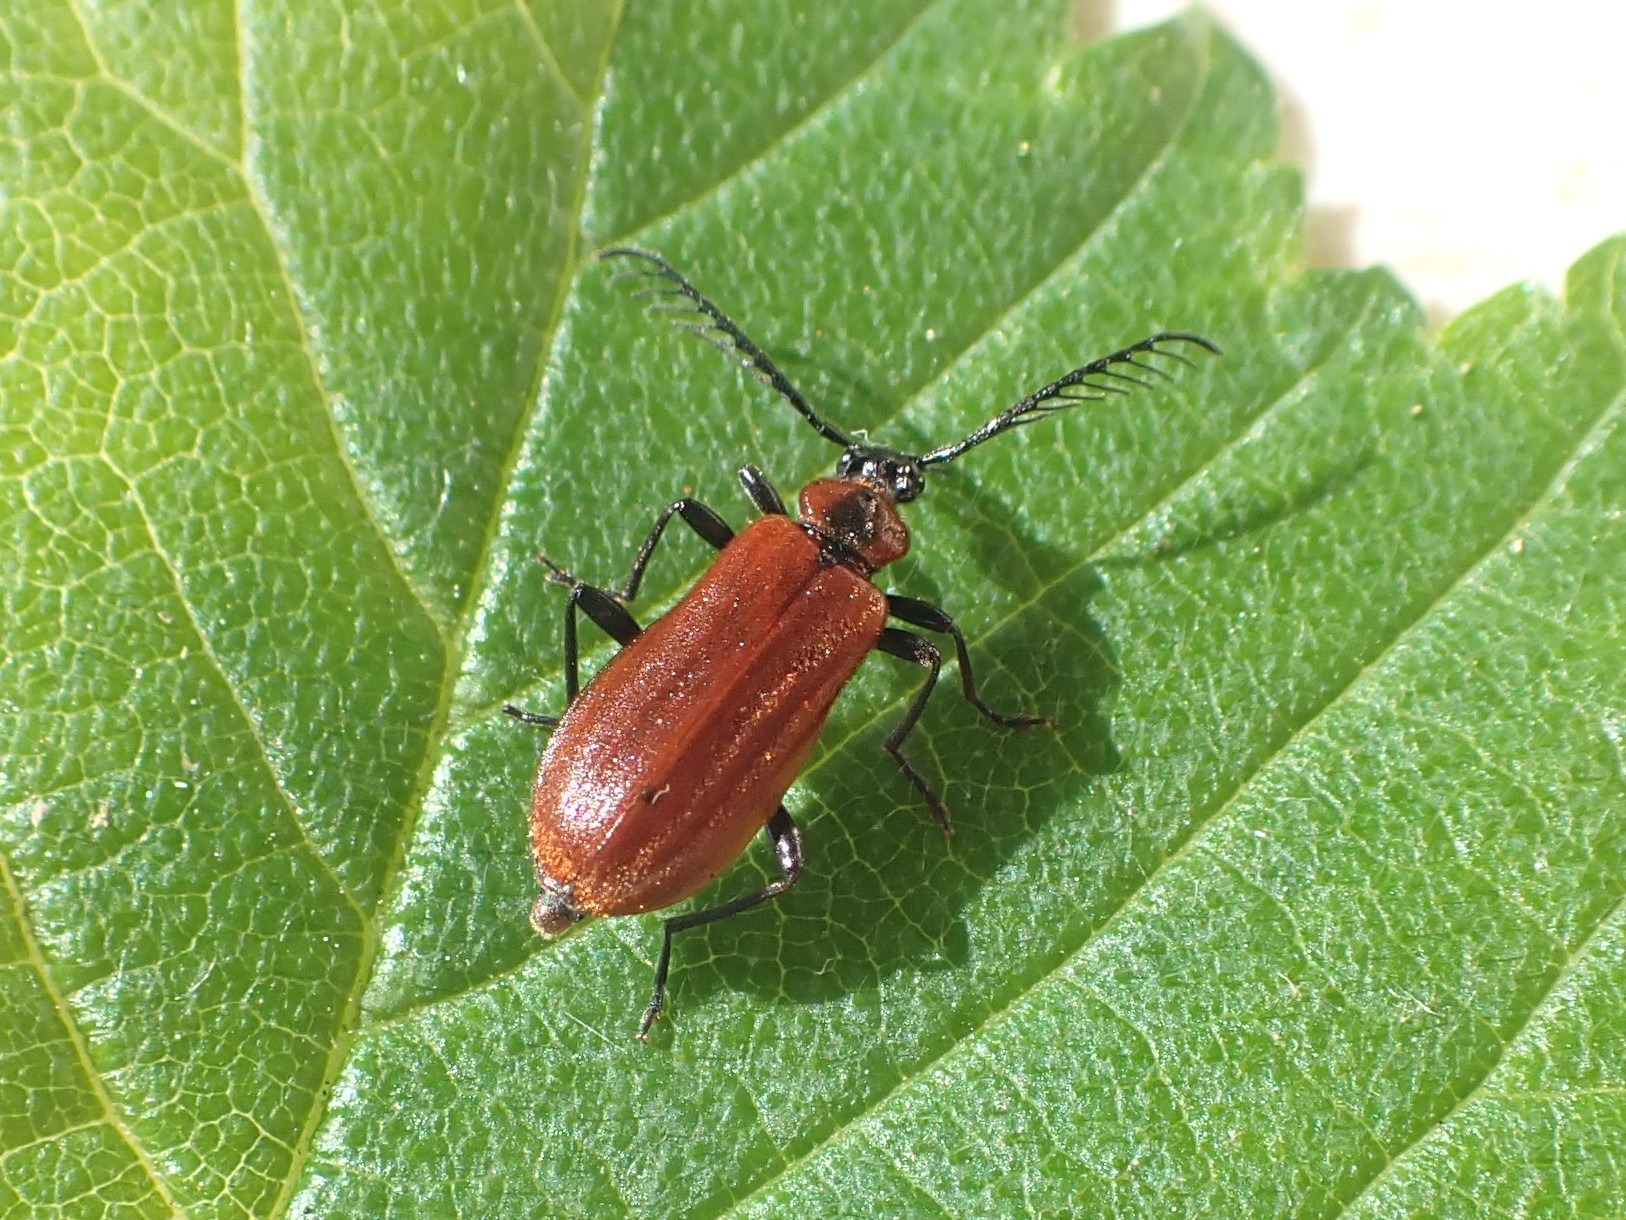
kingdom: Animalia
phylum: Arthropoda
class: Insecta
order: Coleoptera
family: Pyrochroidae
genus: Schizotus
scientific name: Schizotus pectinicornis
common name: Lille kardinalbille
